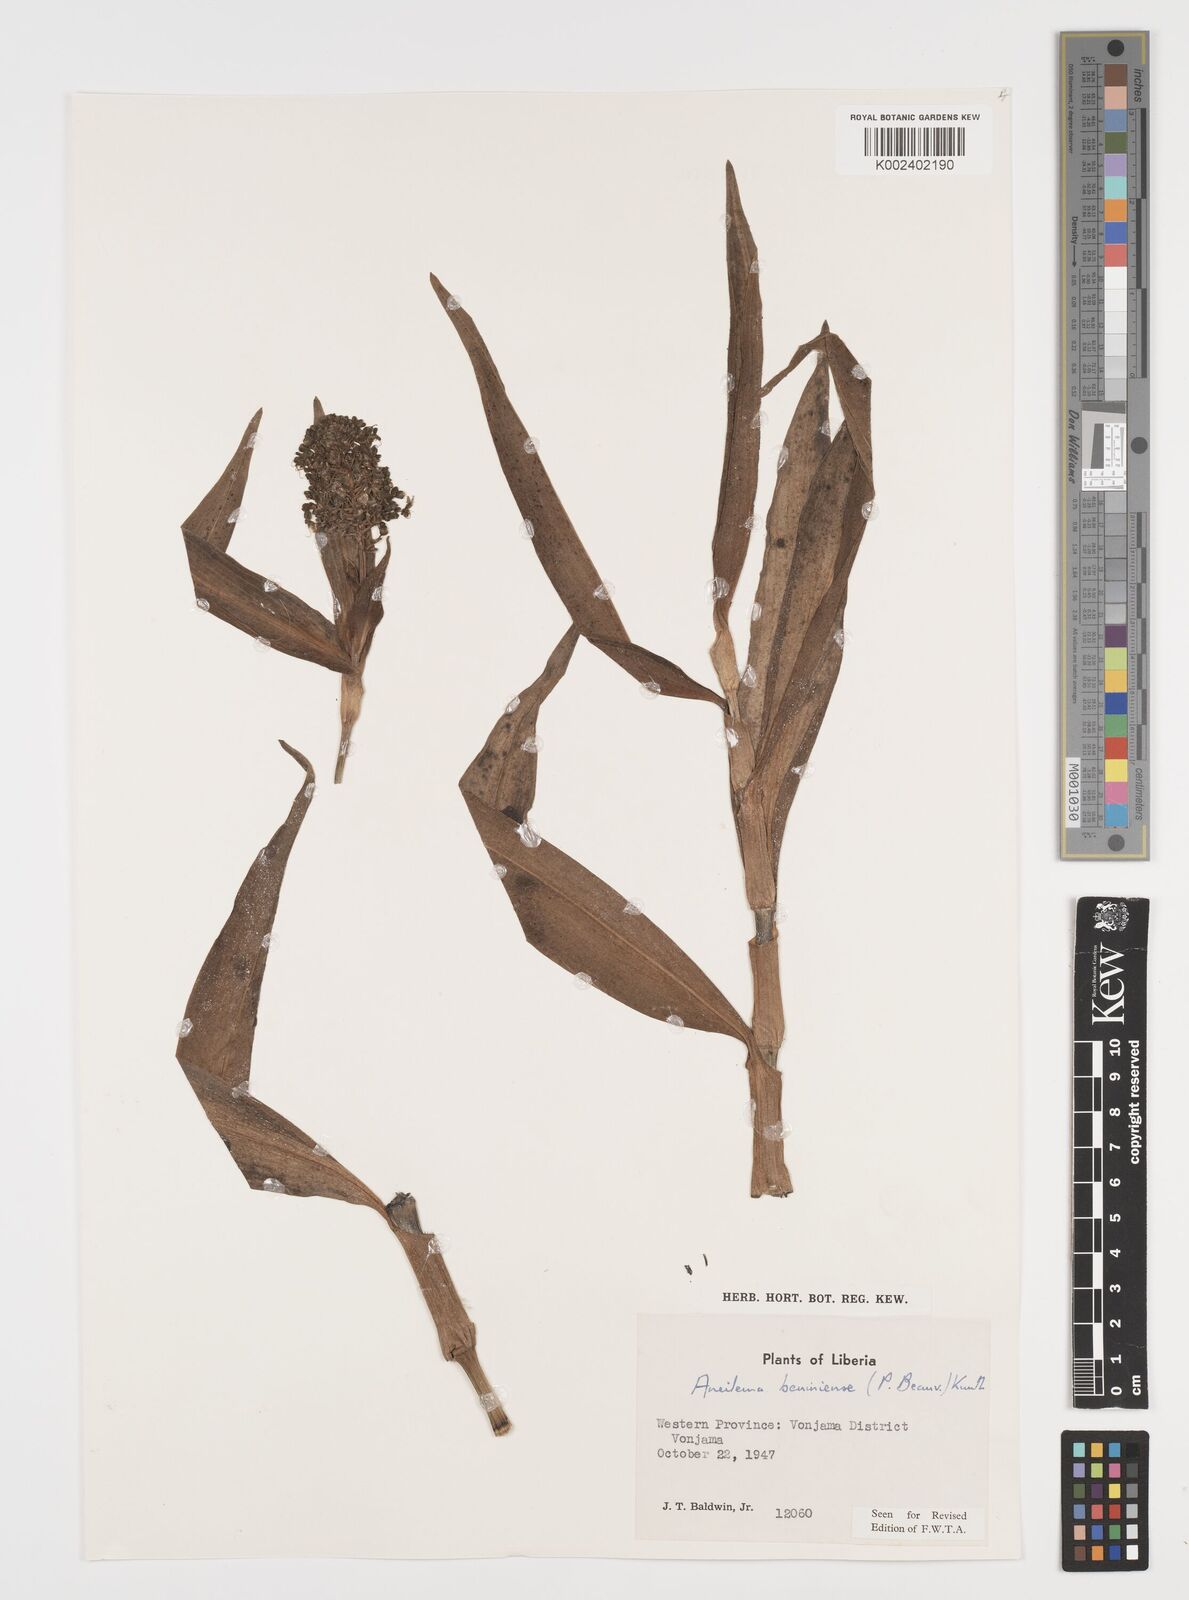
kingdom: Plantae
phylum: Tracheophyta
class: Liliopsida
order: Commelinales
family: Commelinaceae
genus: Aneilema
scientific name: Aneilema beniniense
